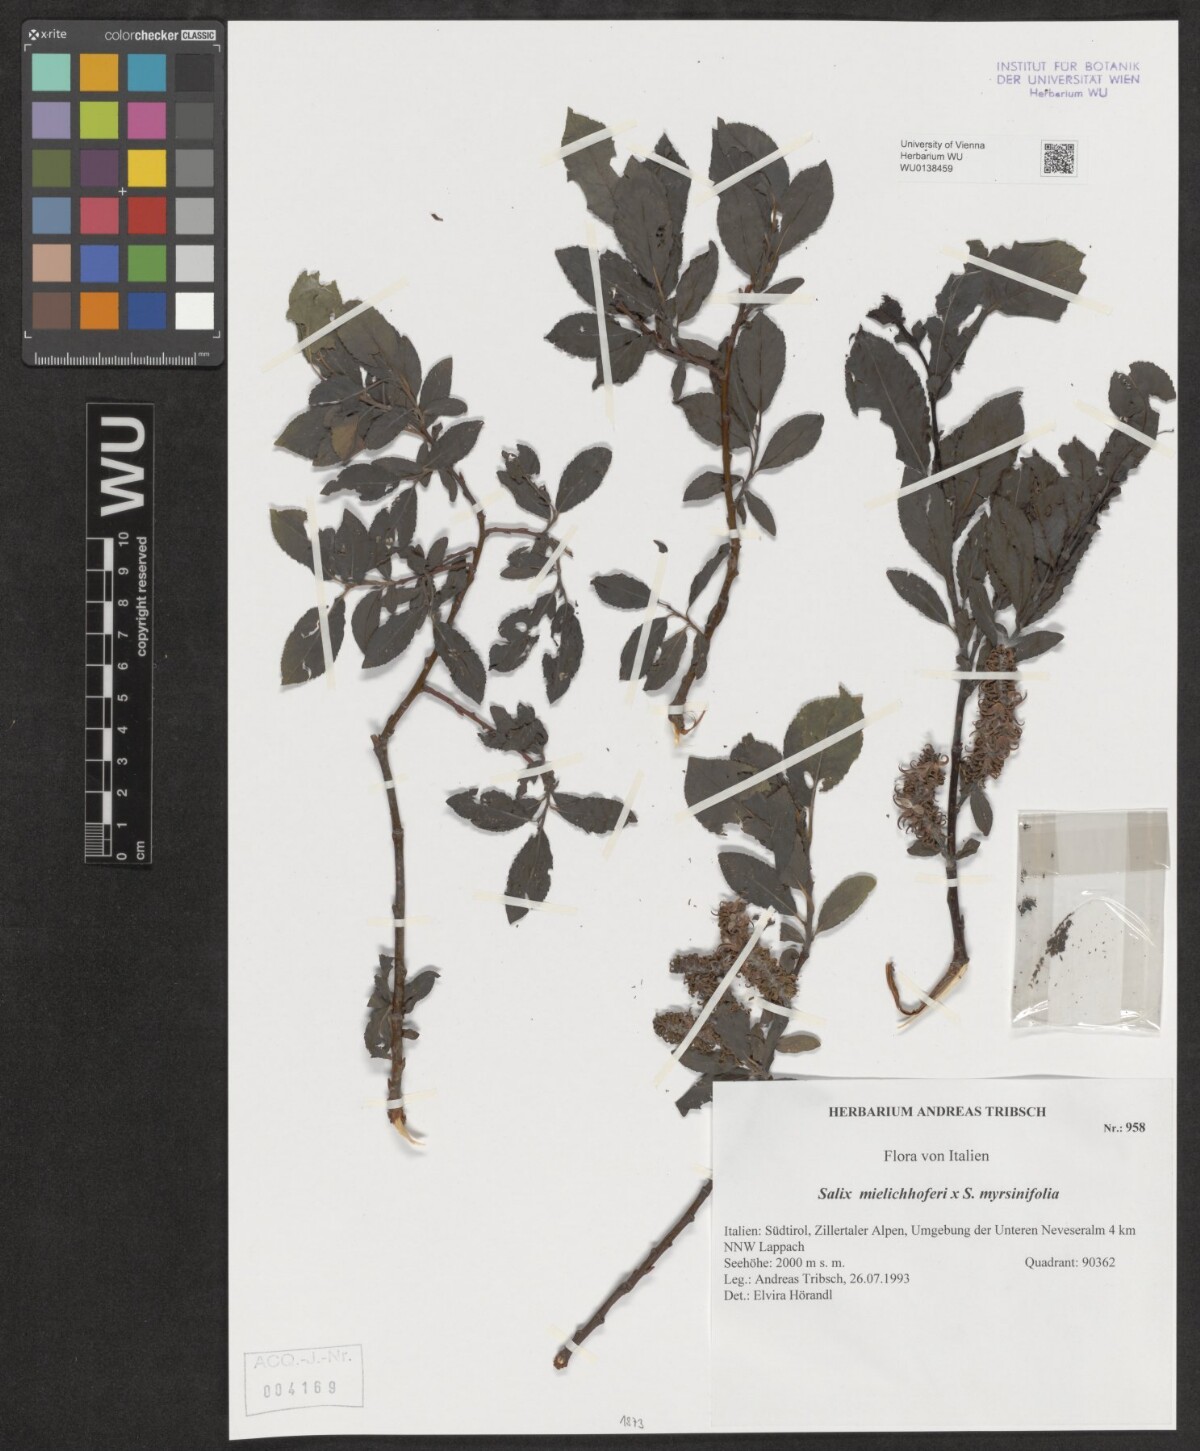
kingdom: Plantae
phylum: Tracheophyta
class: Magnoliopsida
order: Malpighiales
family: Salicaceae
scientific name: Salicaceae
